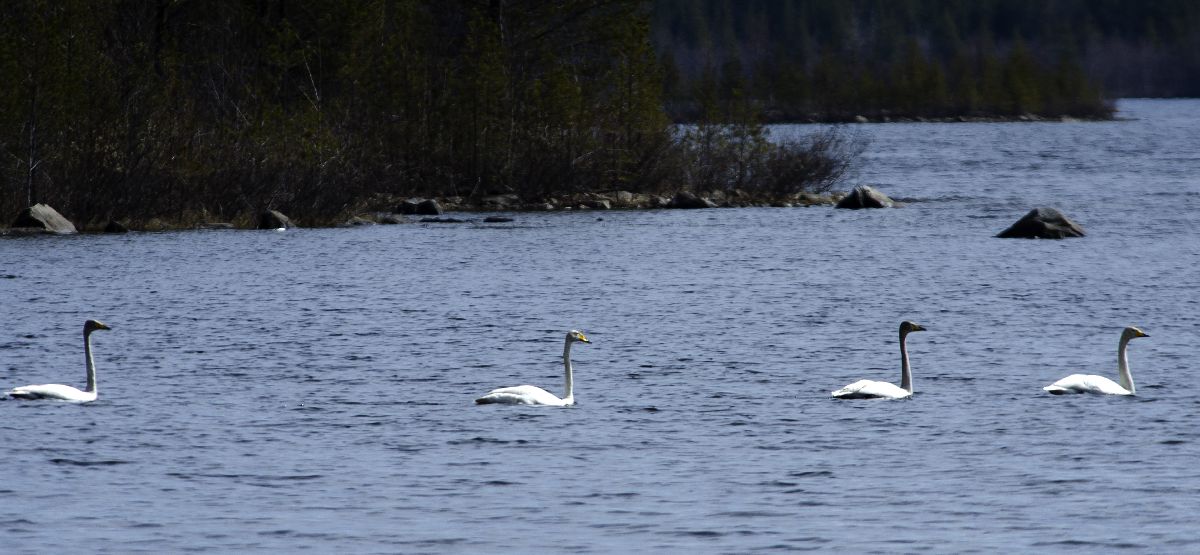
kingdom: Animalia
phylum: Chordata
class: Aves
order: Anseriformes
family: Anatidae
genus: Cygnus
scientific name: Cygnus cygnus
